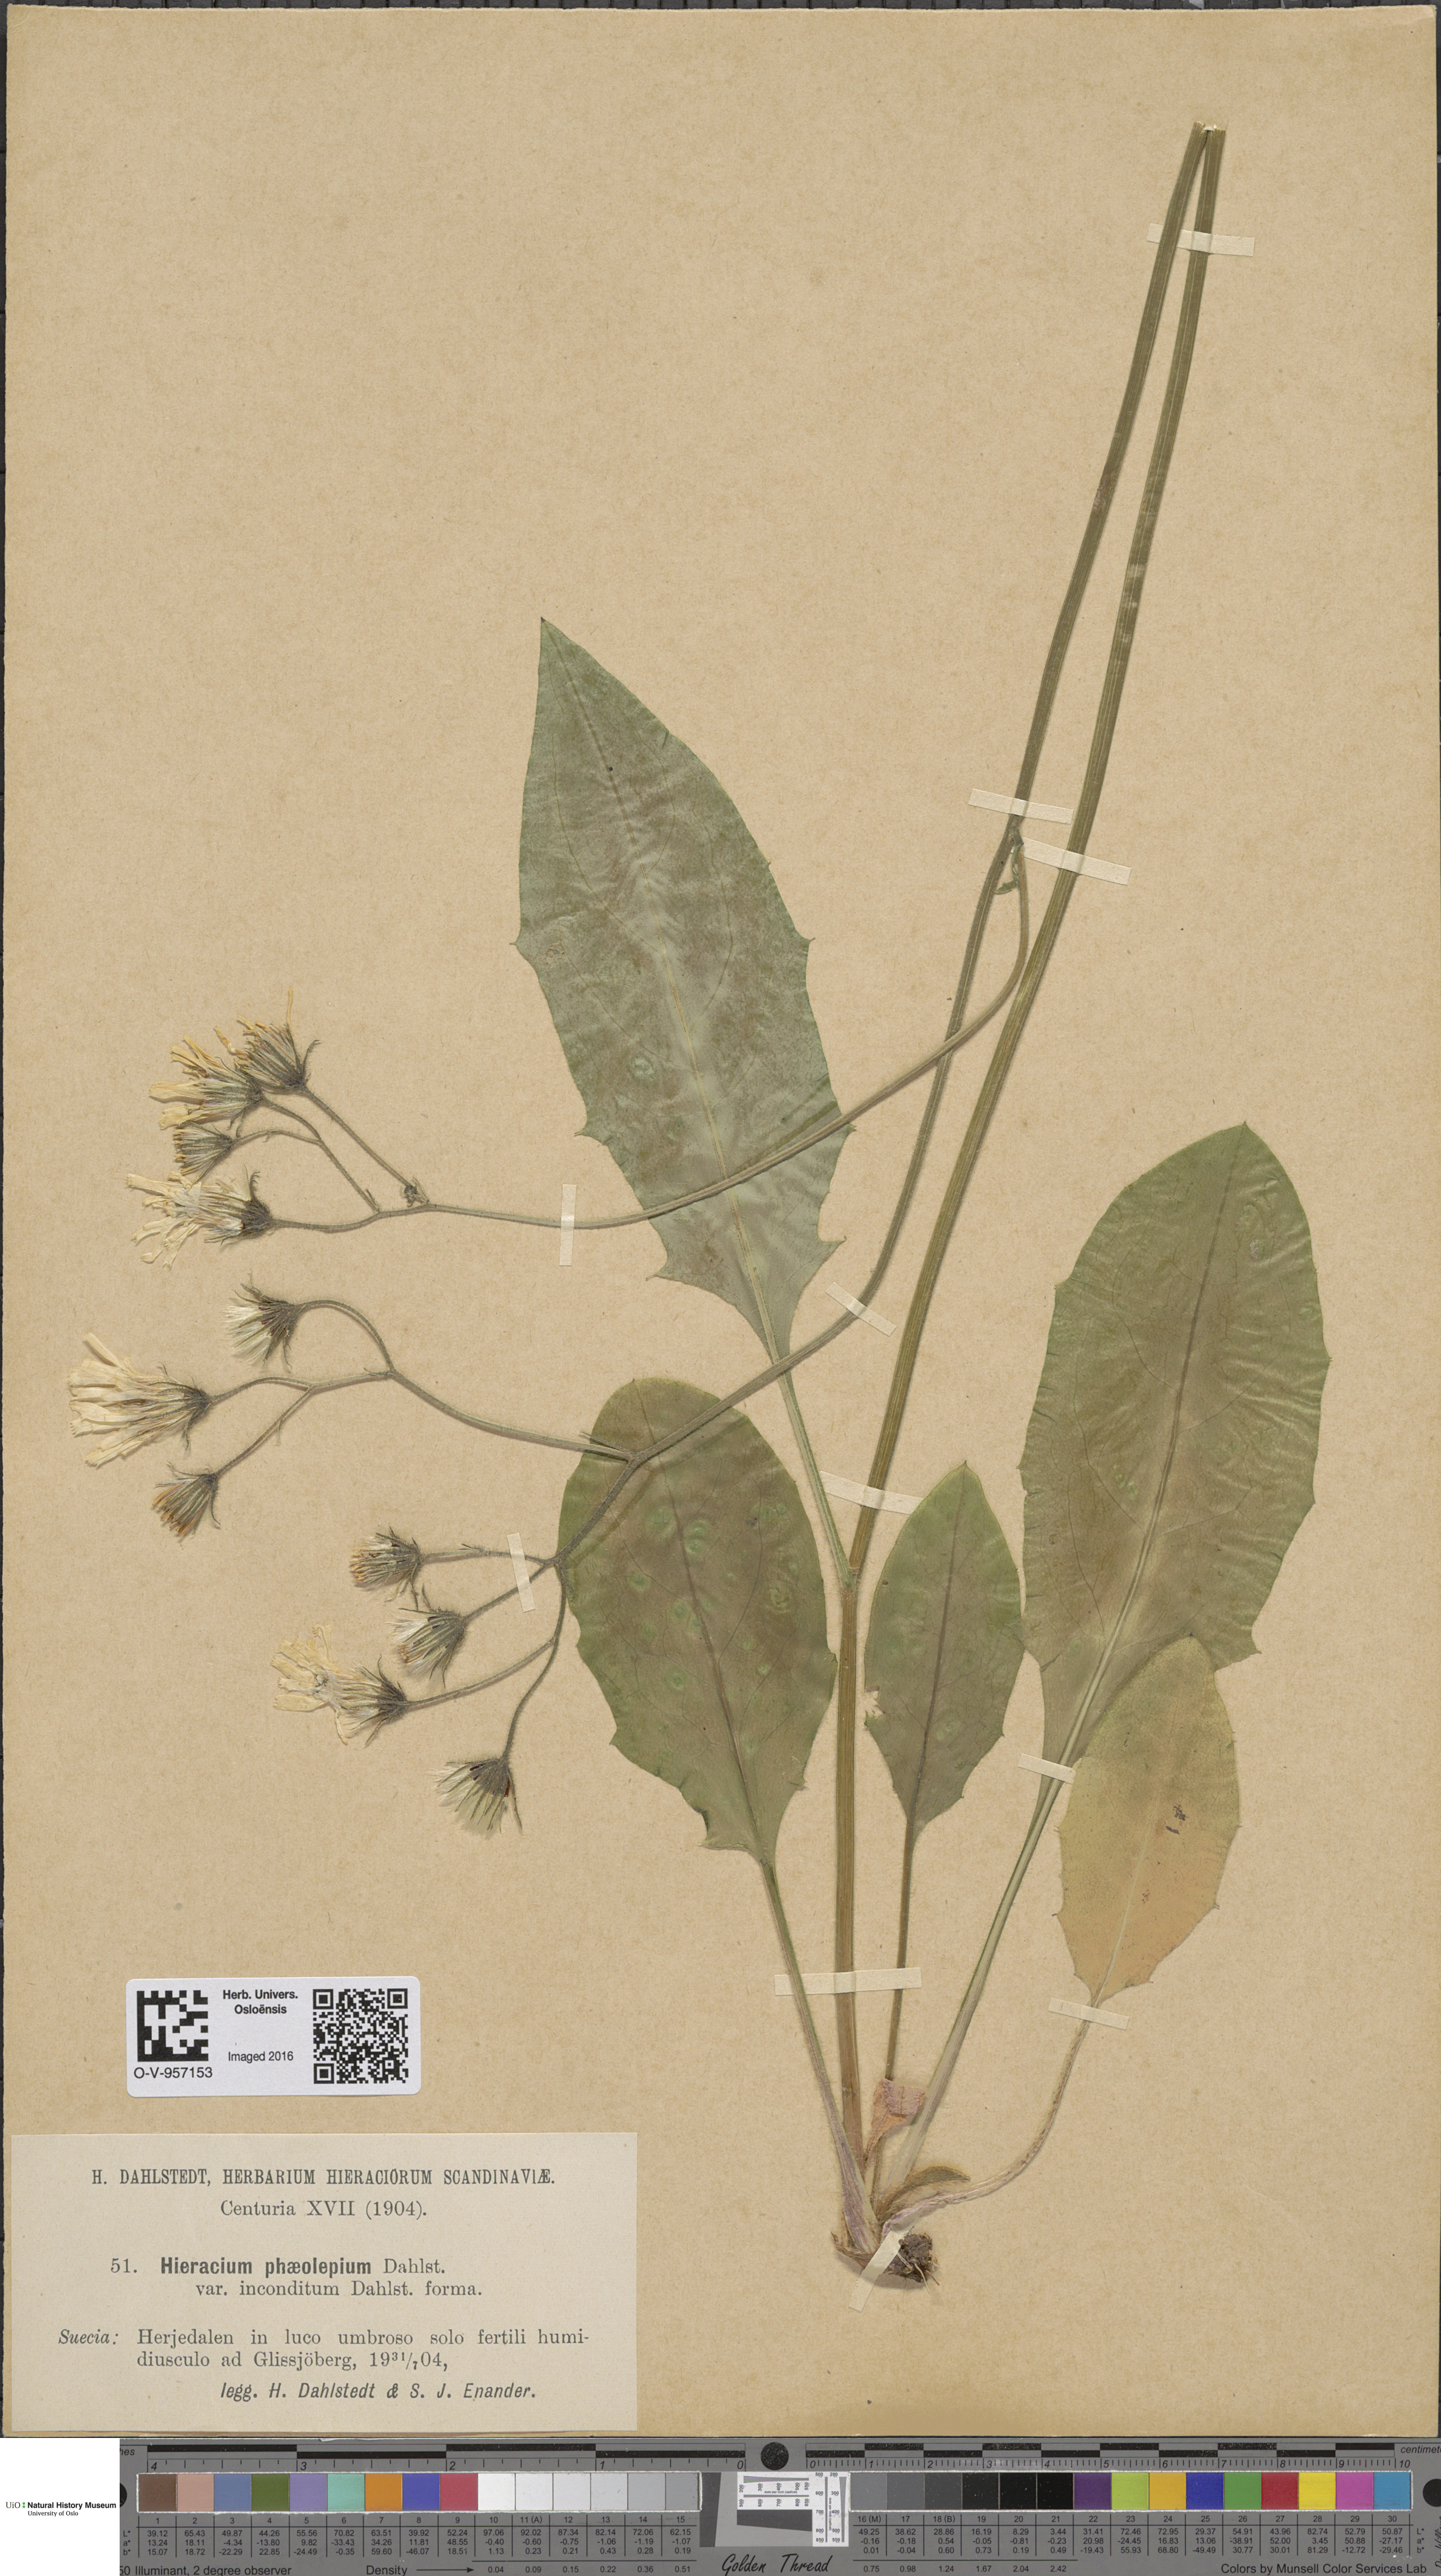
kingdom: Plantae
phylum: Tracheophyta
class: Magnoliopsida
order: Asterales
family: Asteraceae
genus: Hieracium
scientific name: Hieracium
